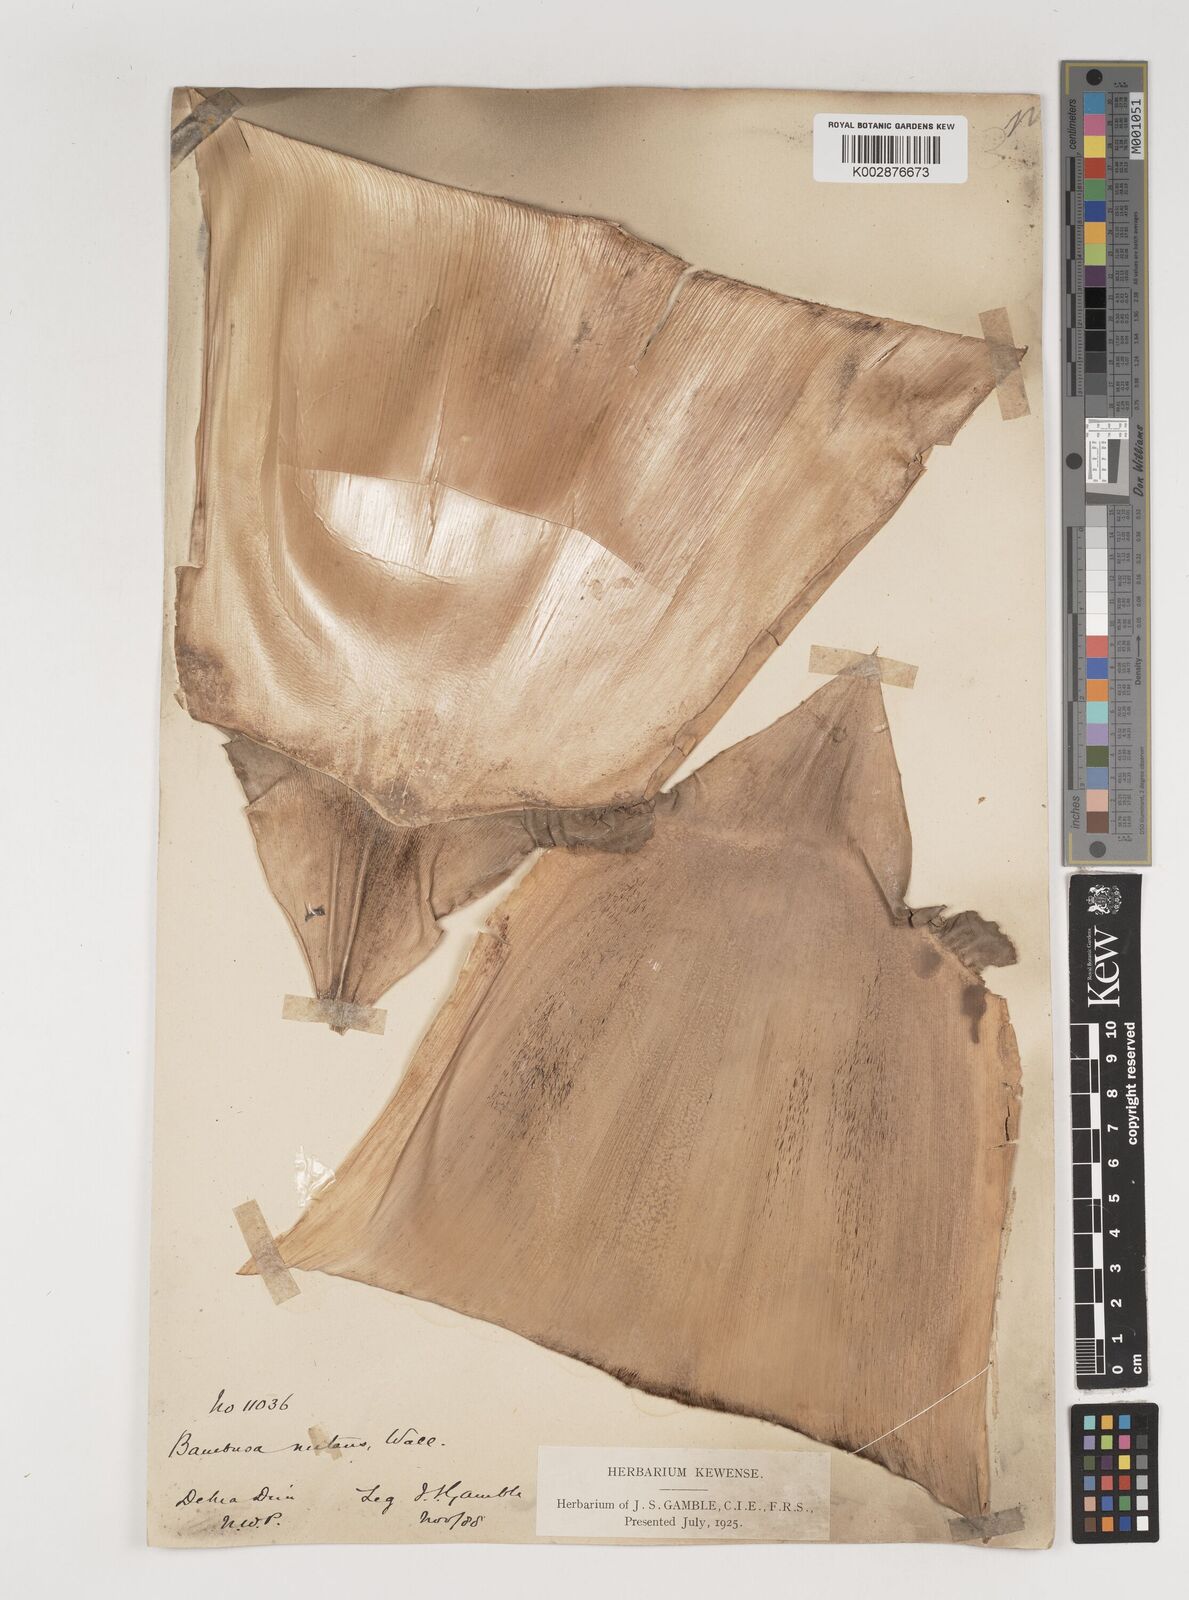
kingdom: Plantae
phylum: Tracheophyta
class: Liliopsida
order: Poales
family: Poaceae
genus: Bambusa
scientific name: Bambusa nutans
